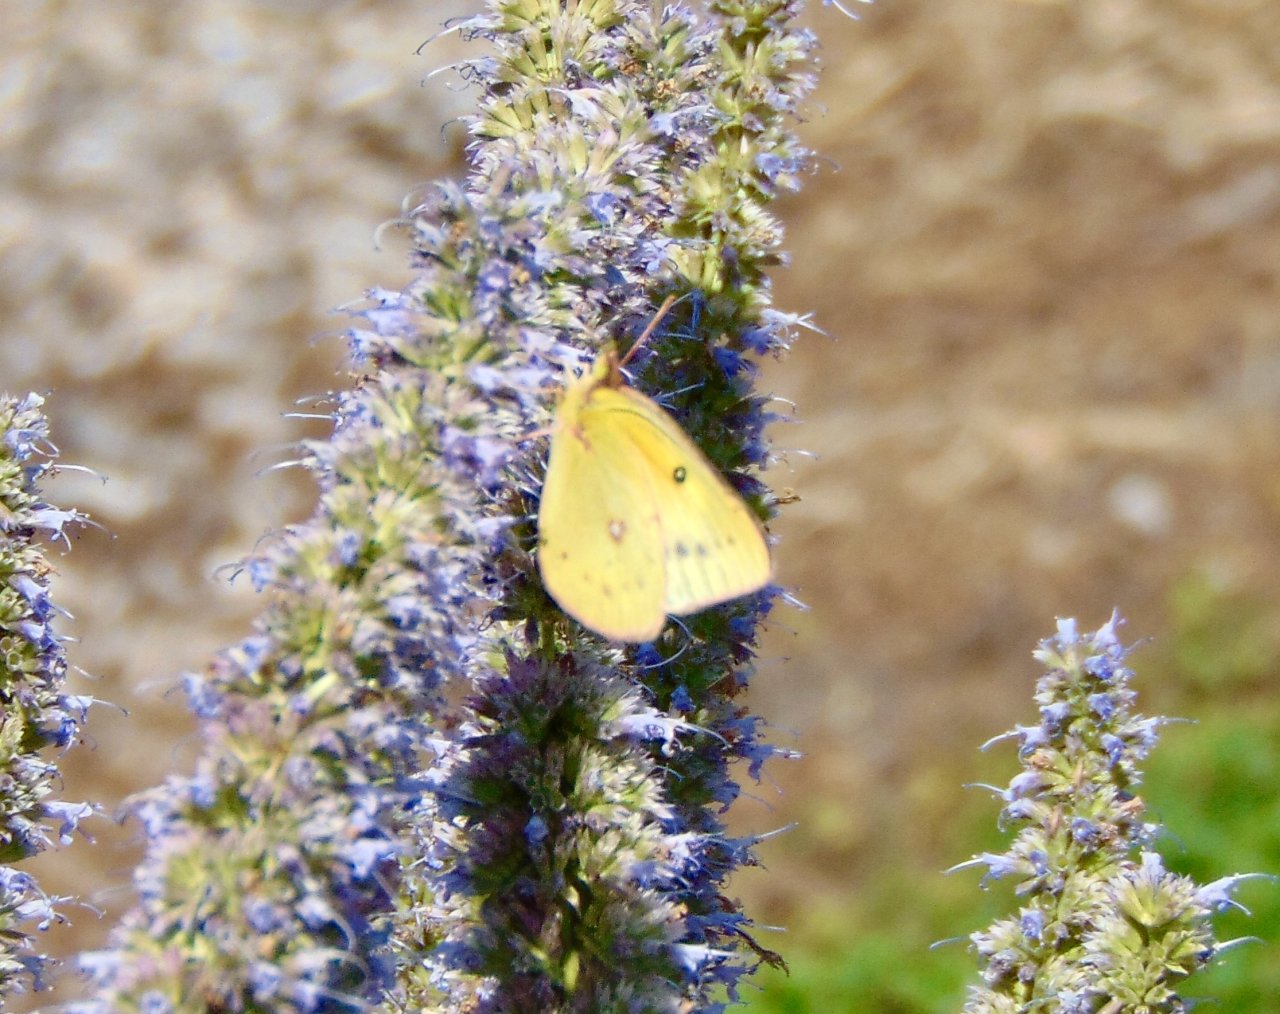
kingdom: Animalia
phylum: Arthropoda
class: Insecta
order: Lepidoptera
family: Pieridae
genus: Colias
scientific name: Colias eurytheme
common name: Orange Sulphur
